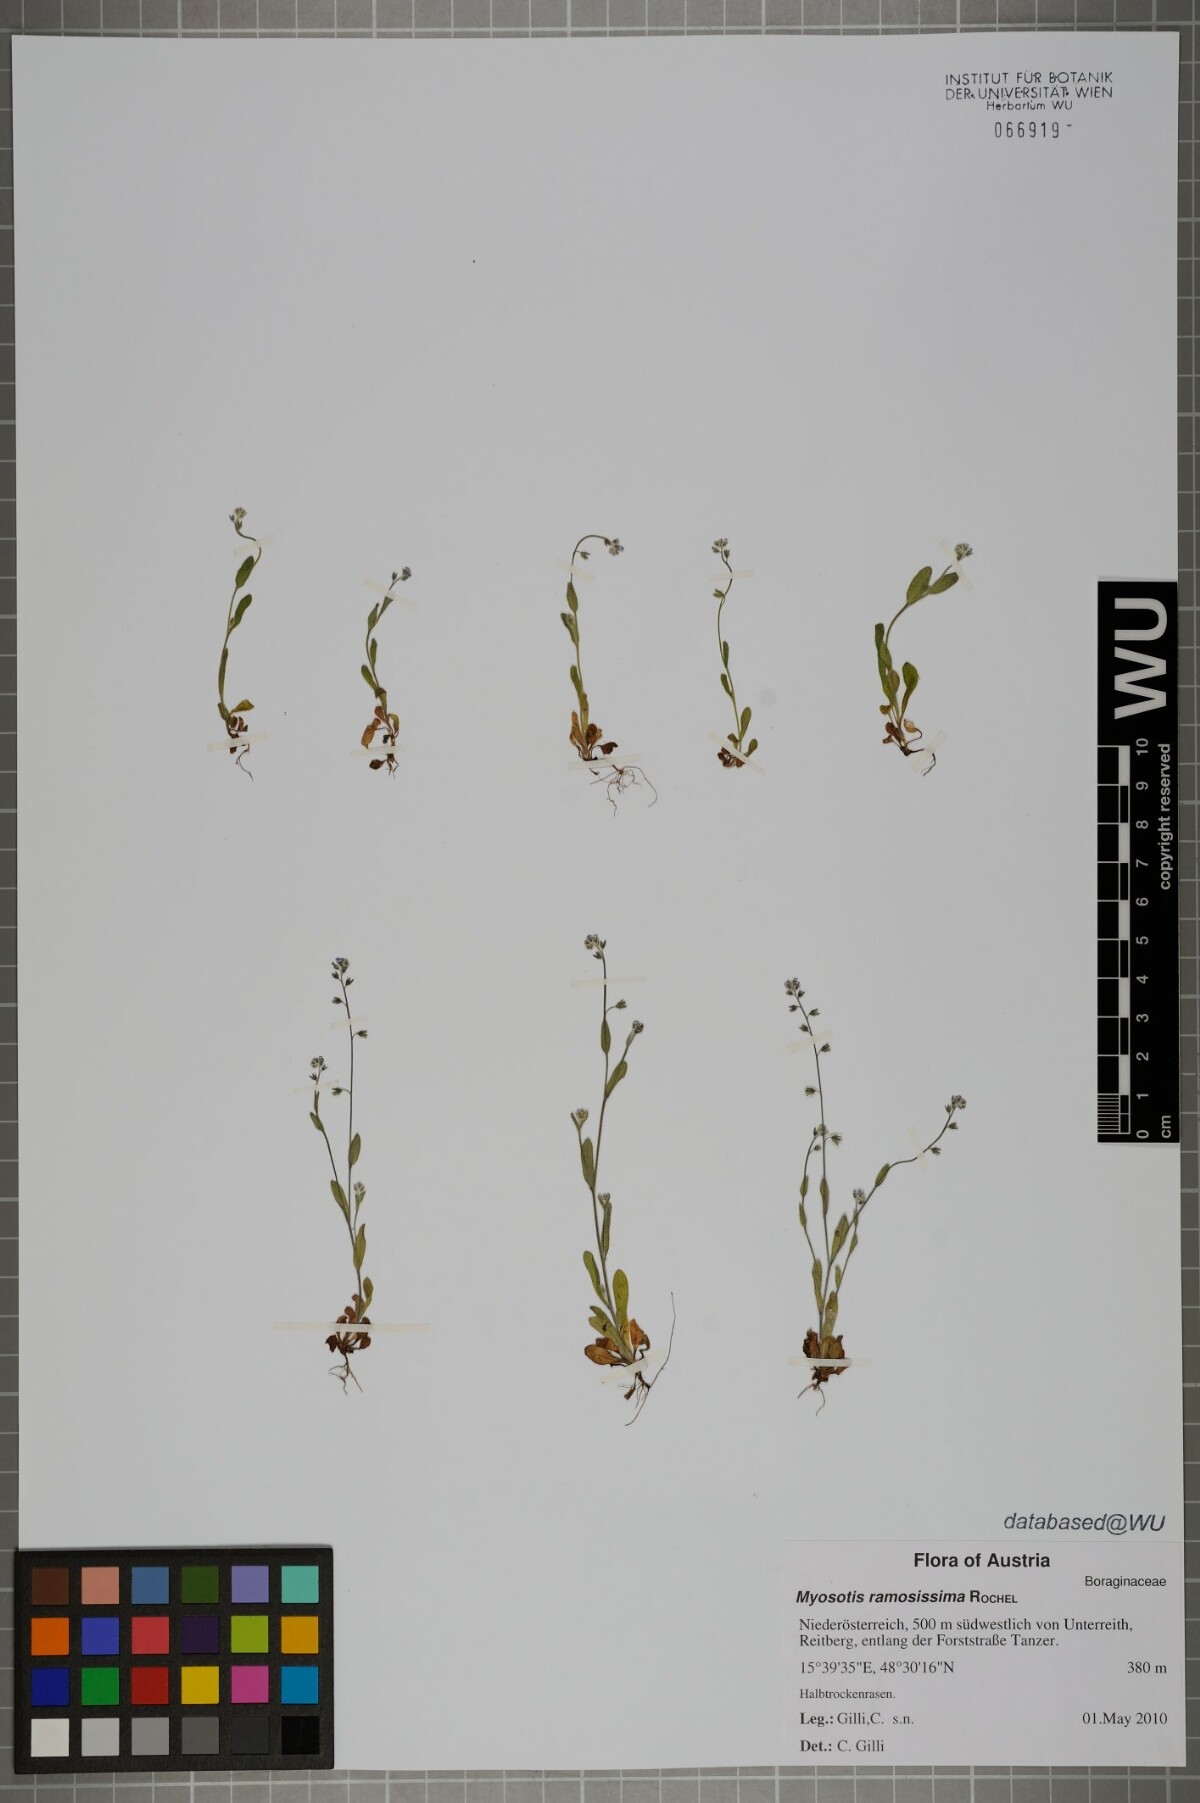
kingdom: Plantae
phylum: Tracheophyta
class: Magnoliopsida
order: Boraginales
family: Boraginaceae
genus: Myosotis
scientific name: Myosotis ramosissima
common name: Early forget-me-not
